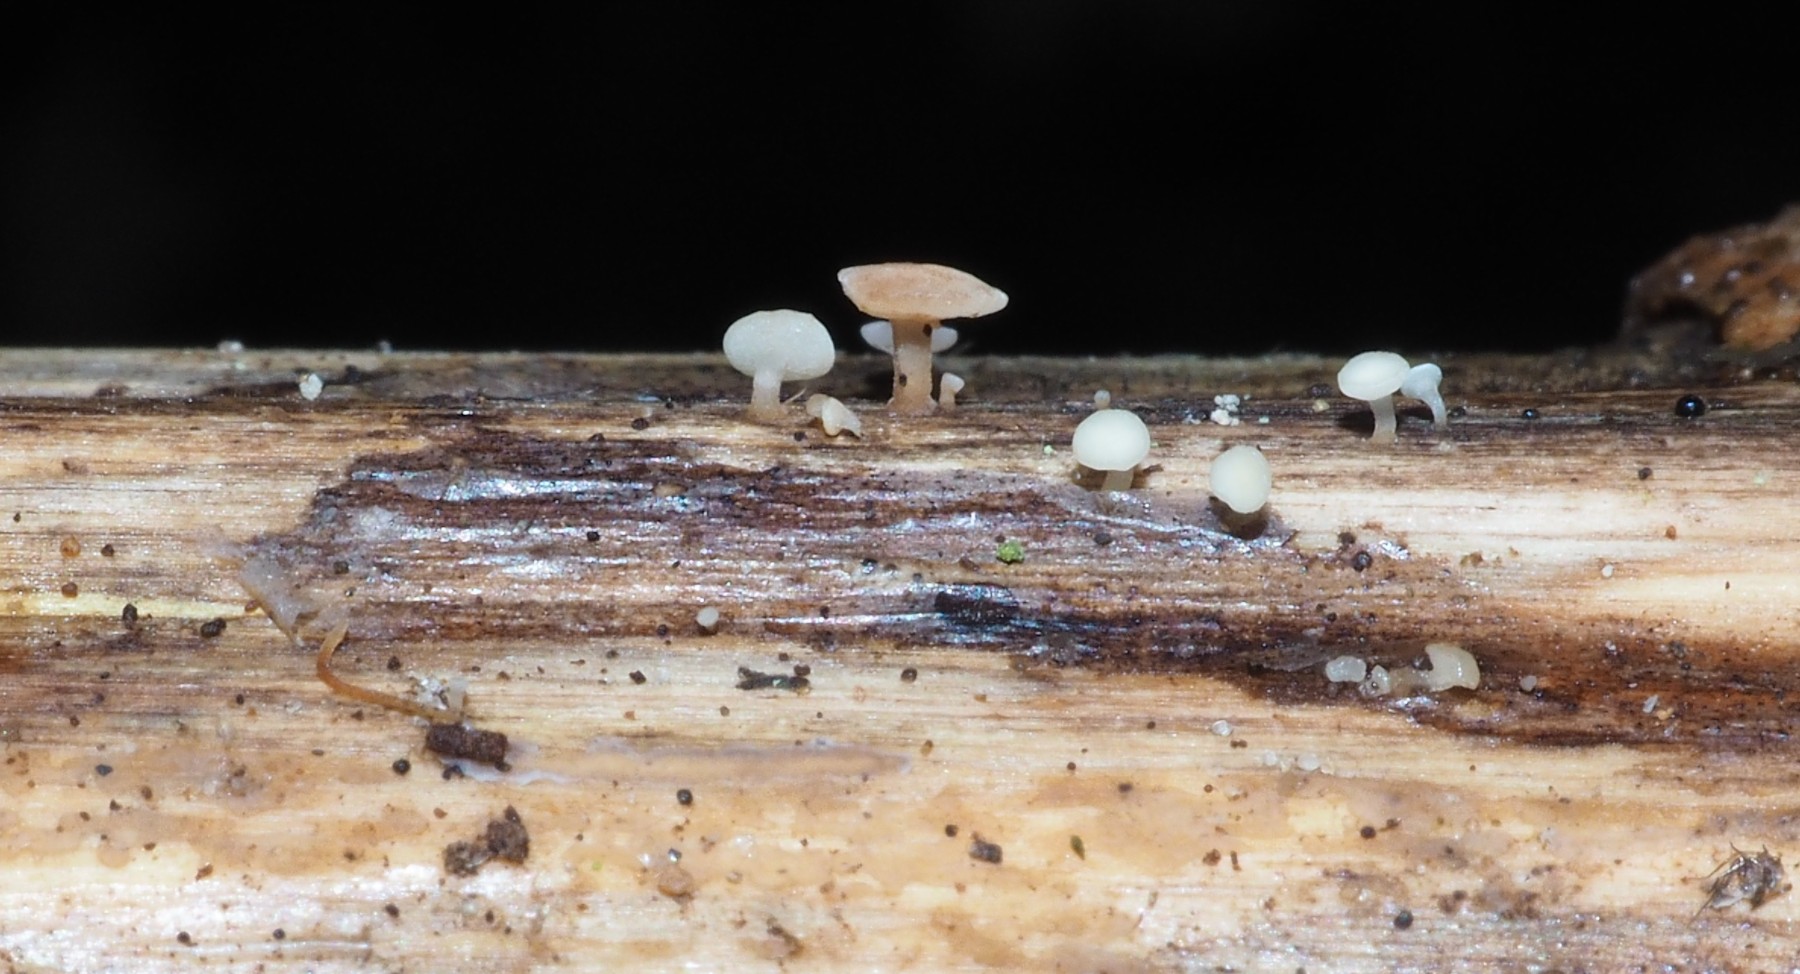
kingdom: Fungi
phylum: Ascomycota
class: Leotiomycetes
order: Helotiales
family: Helotiaceae
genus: Hymenoscyphus
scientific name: Hymenoscyphus scutula
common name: almindelig stilkskive
